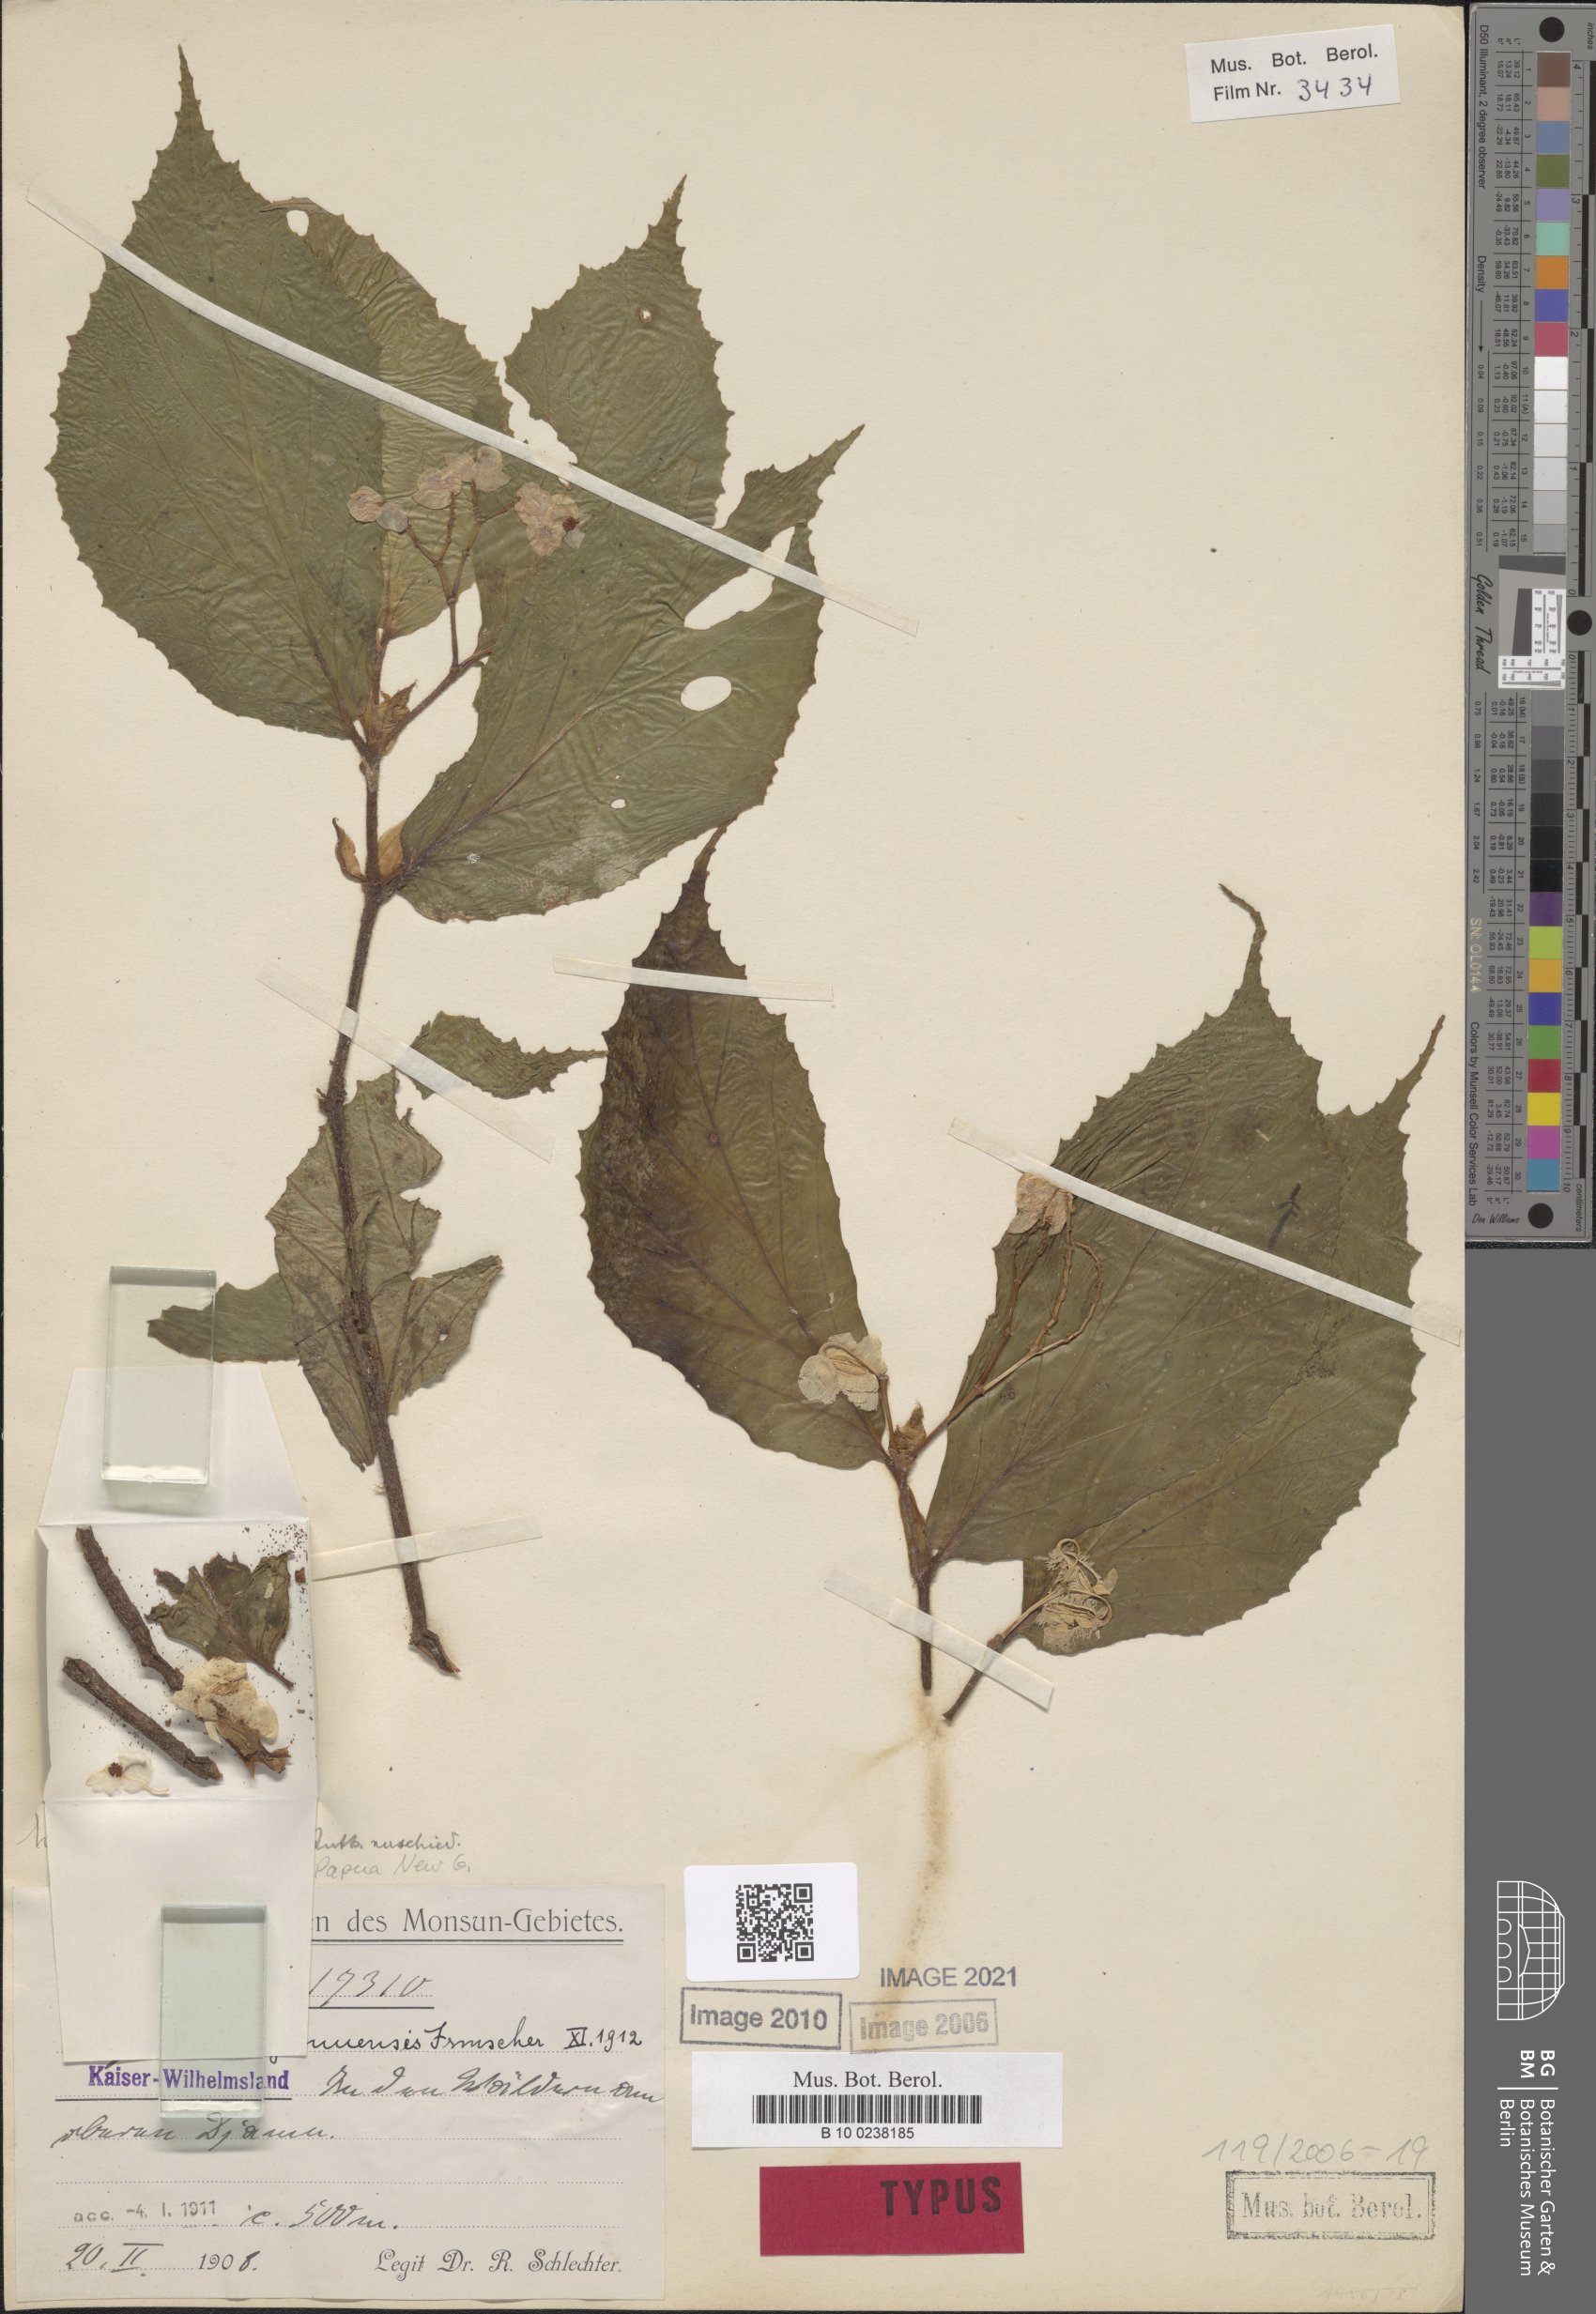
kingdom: Plantae
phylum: Tracheophyta
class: Magnoliopsida
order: Cucurbitales
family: Begoniaceae
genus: Begonia
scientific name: Begonia djamuensis
